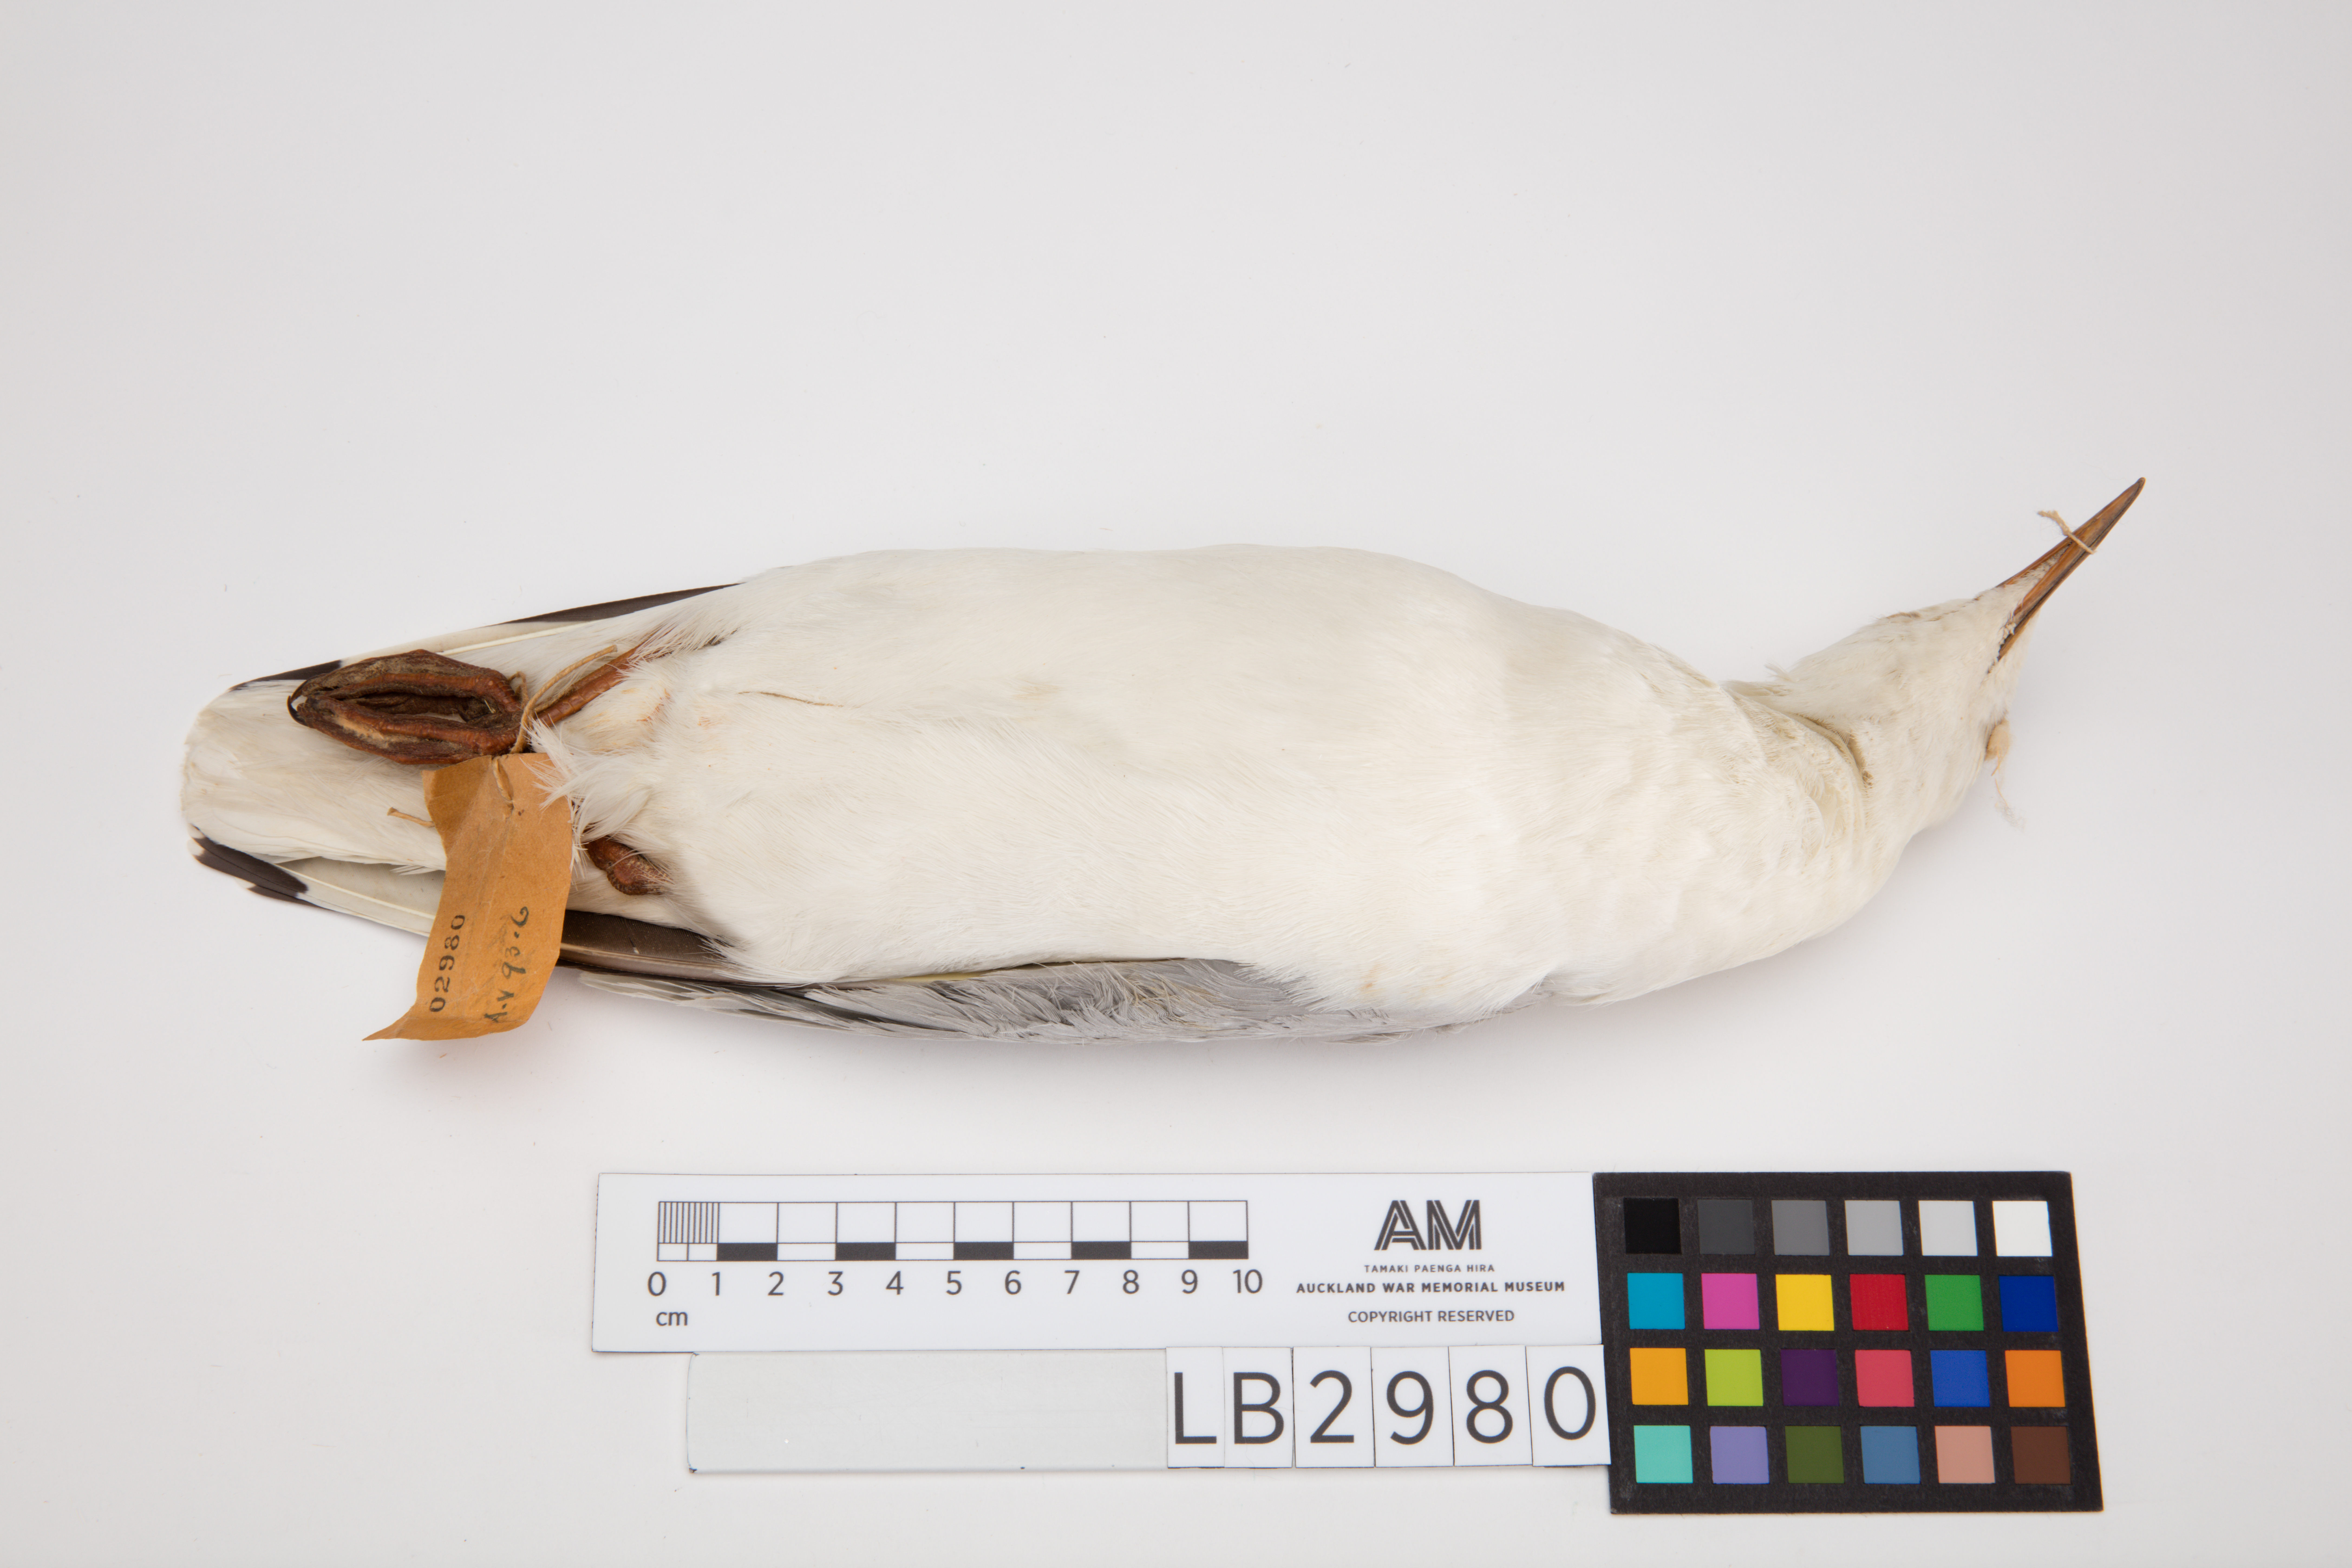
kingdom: Animalia
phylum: Chordata
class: Aves
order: Charadriiformes
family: Laridae
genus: Chroicocephalus
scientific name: Chroicocephalus novaehollandiae
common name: Silver gull
